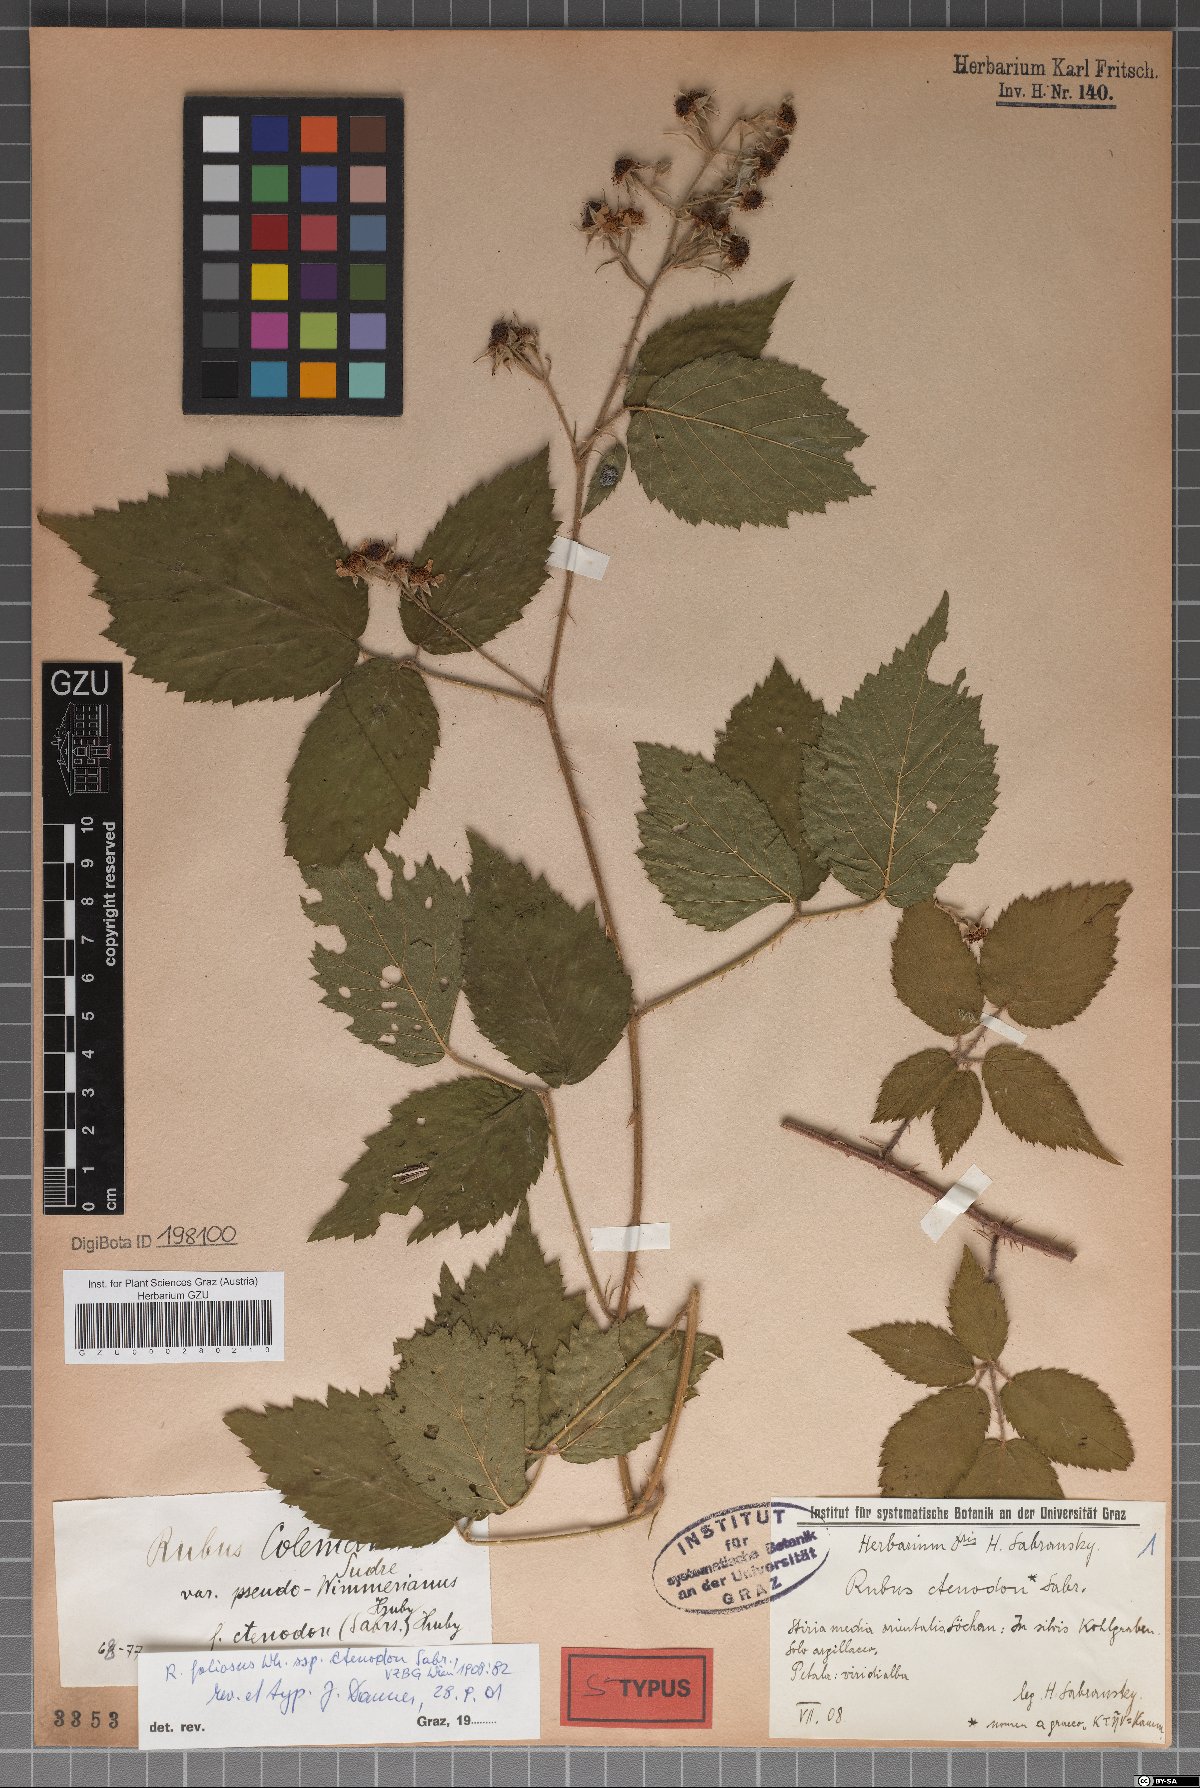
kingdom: Plantae
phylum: Tracheophyta
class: Magnoliopsida
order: Rosales
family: Rosaceae
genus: Rubus
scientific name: Rubus foliosus
